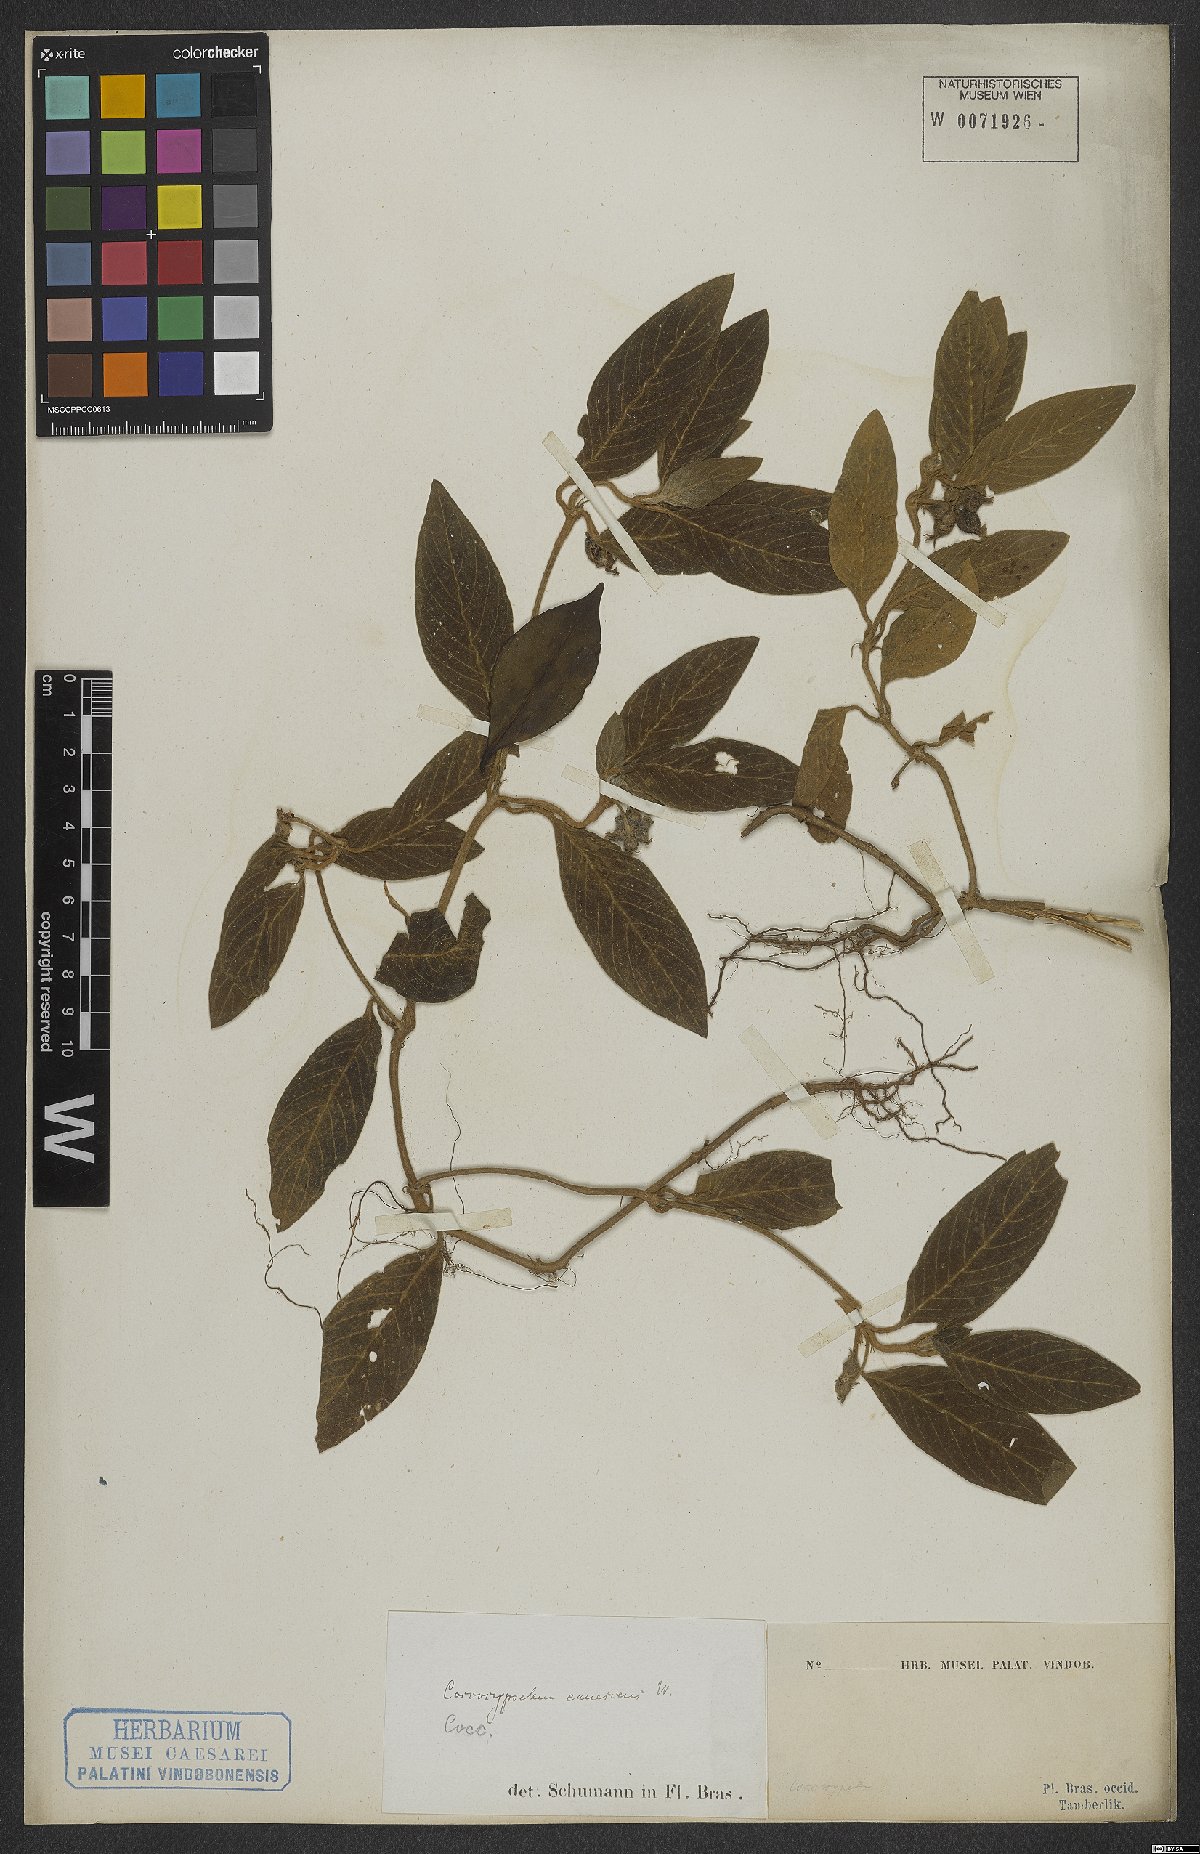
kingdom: Plantae
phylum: Tracheophyta
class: Magnoliopsida
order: Gentianales
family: Rubiaceae
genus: Coccocypselum
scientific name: Coccocypselum lanceolatum
